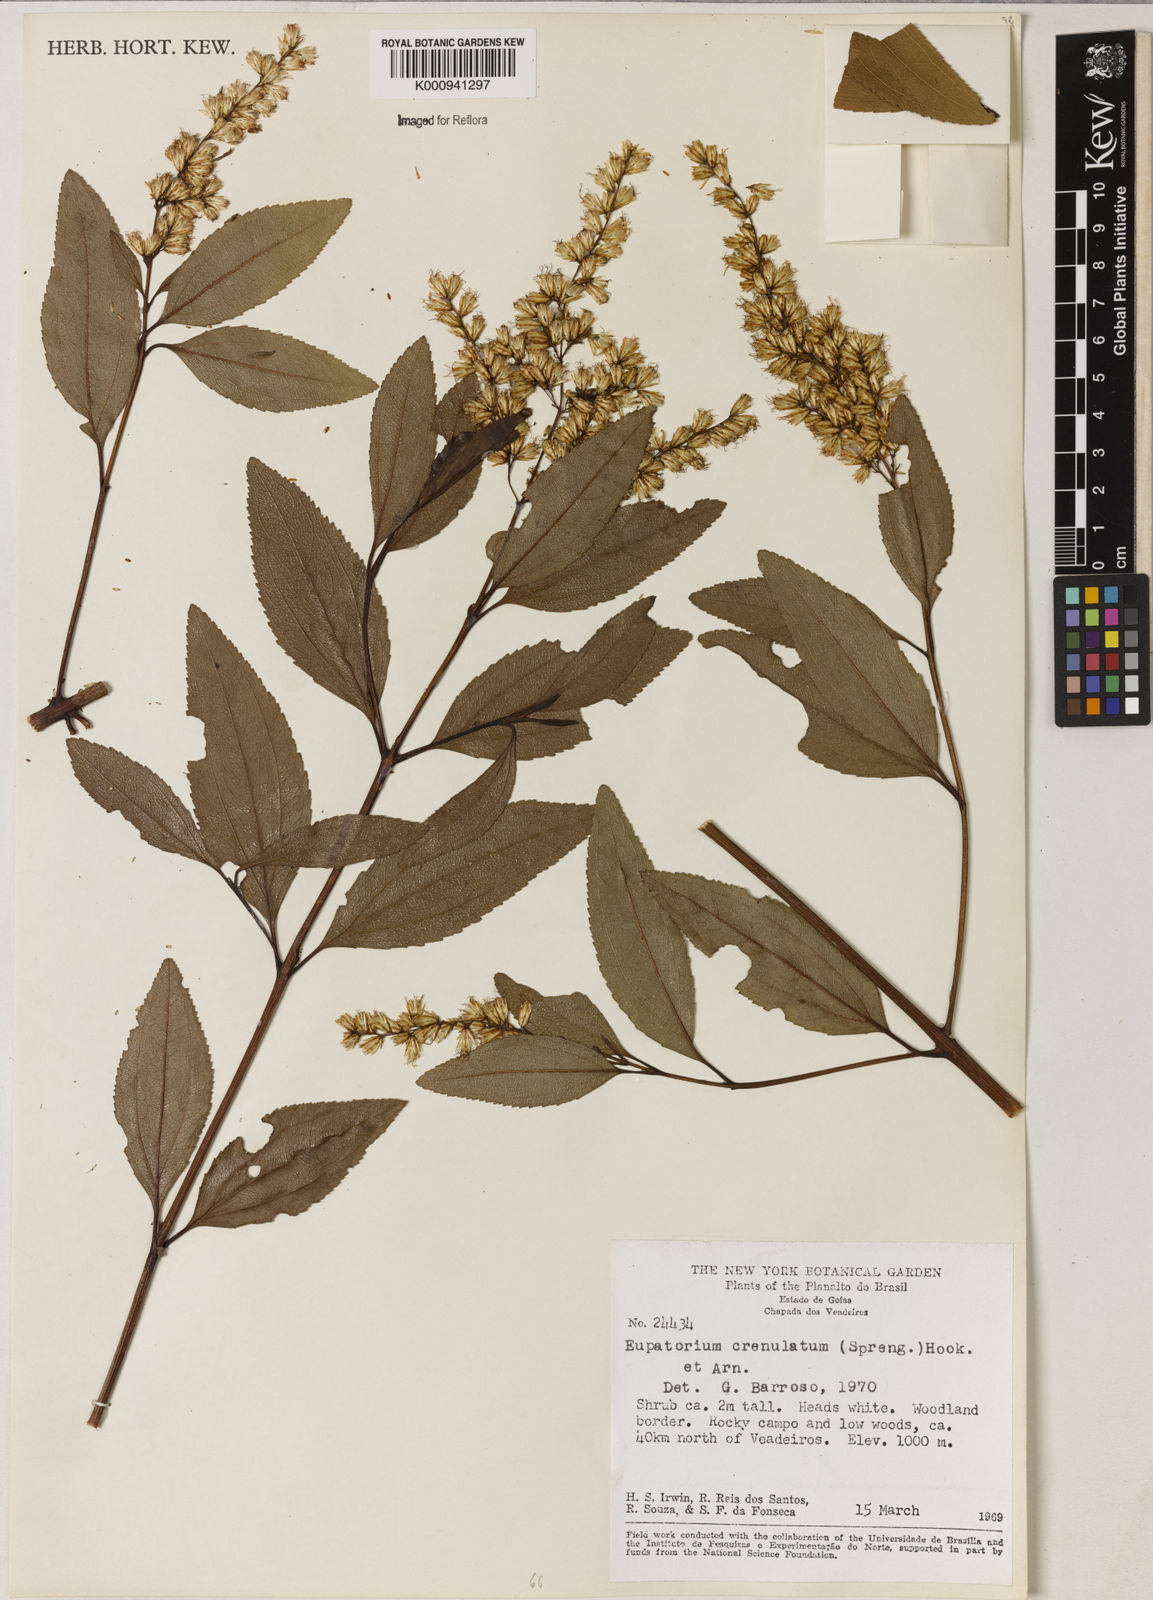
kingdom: Plantae
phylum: Tracheophyta
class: Magnoliopsida
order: Asterales
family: Asteraceae
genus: Raulinoreitzia
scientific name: Raulinoreitzia crenulata
